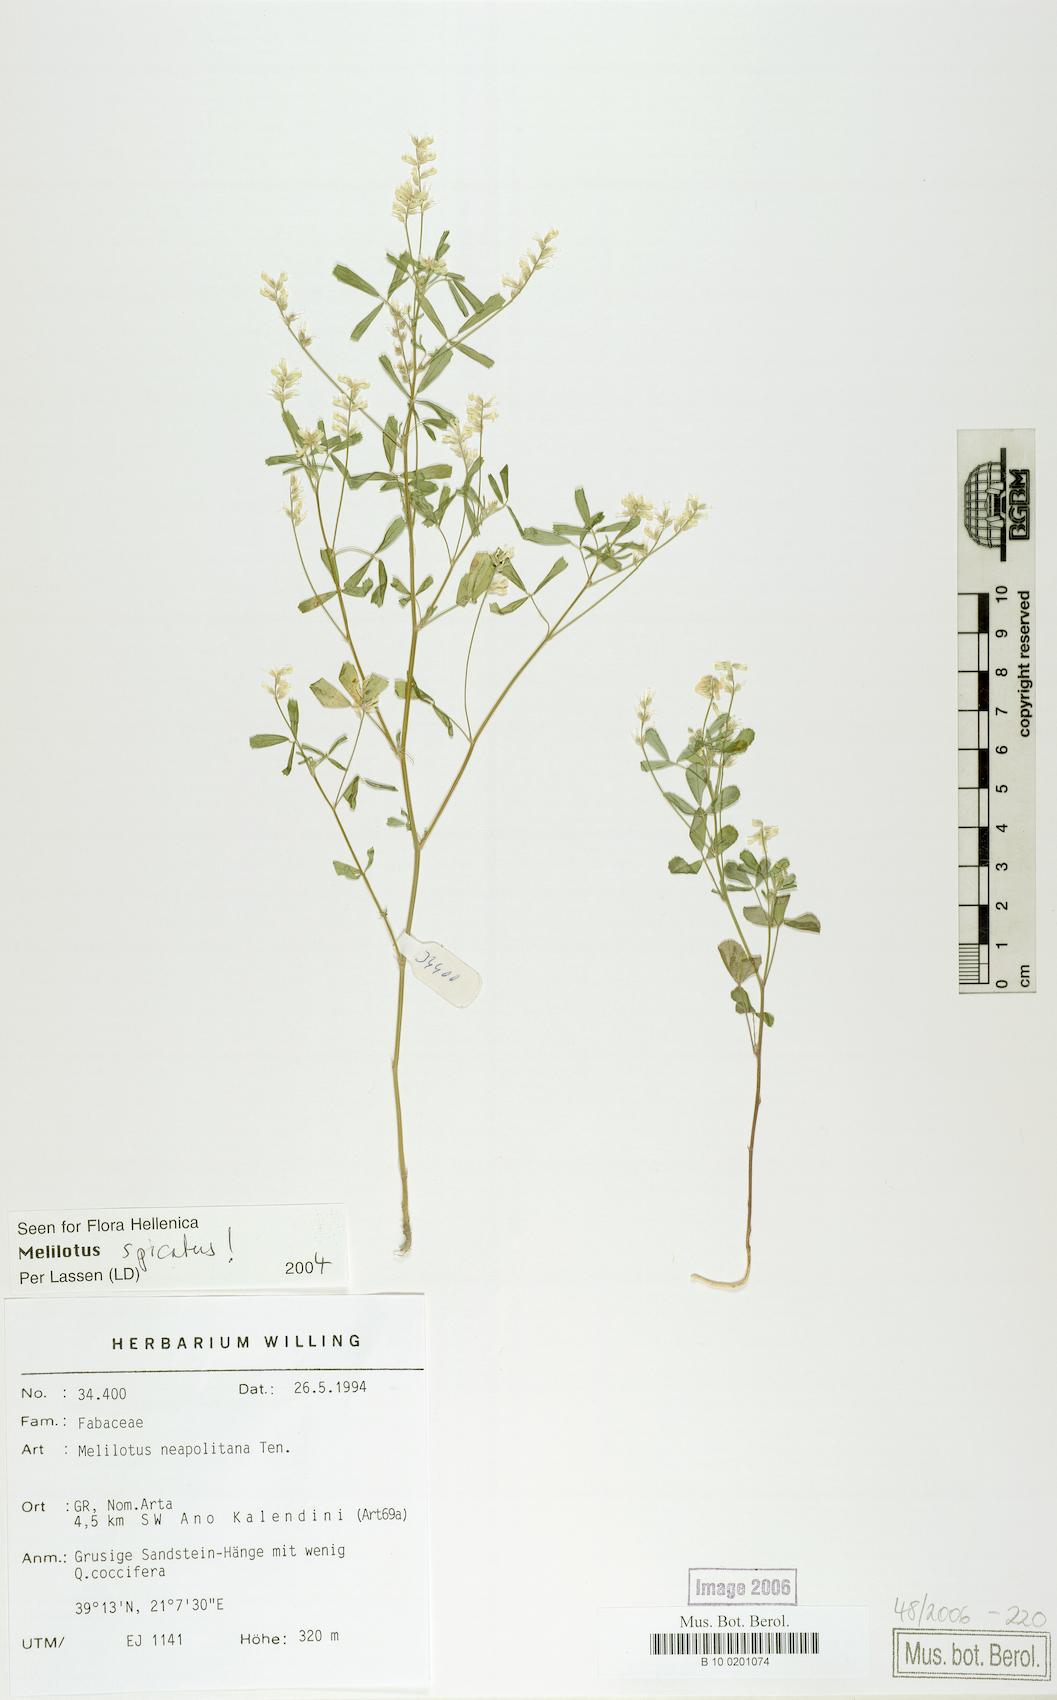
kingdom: Plantae
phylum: Tracheophyta
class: Magnoliopsida
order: Fabales
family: Fabaceae
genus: Melilotus
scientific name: Melilotus neapolitanus
